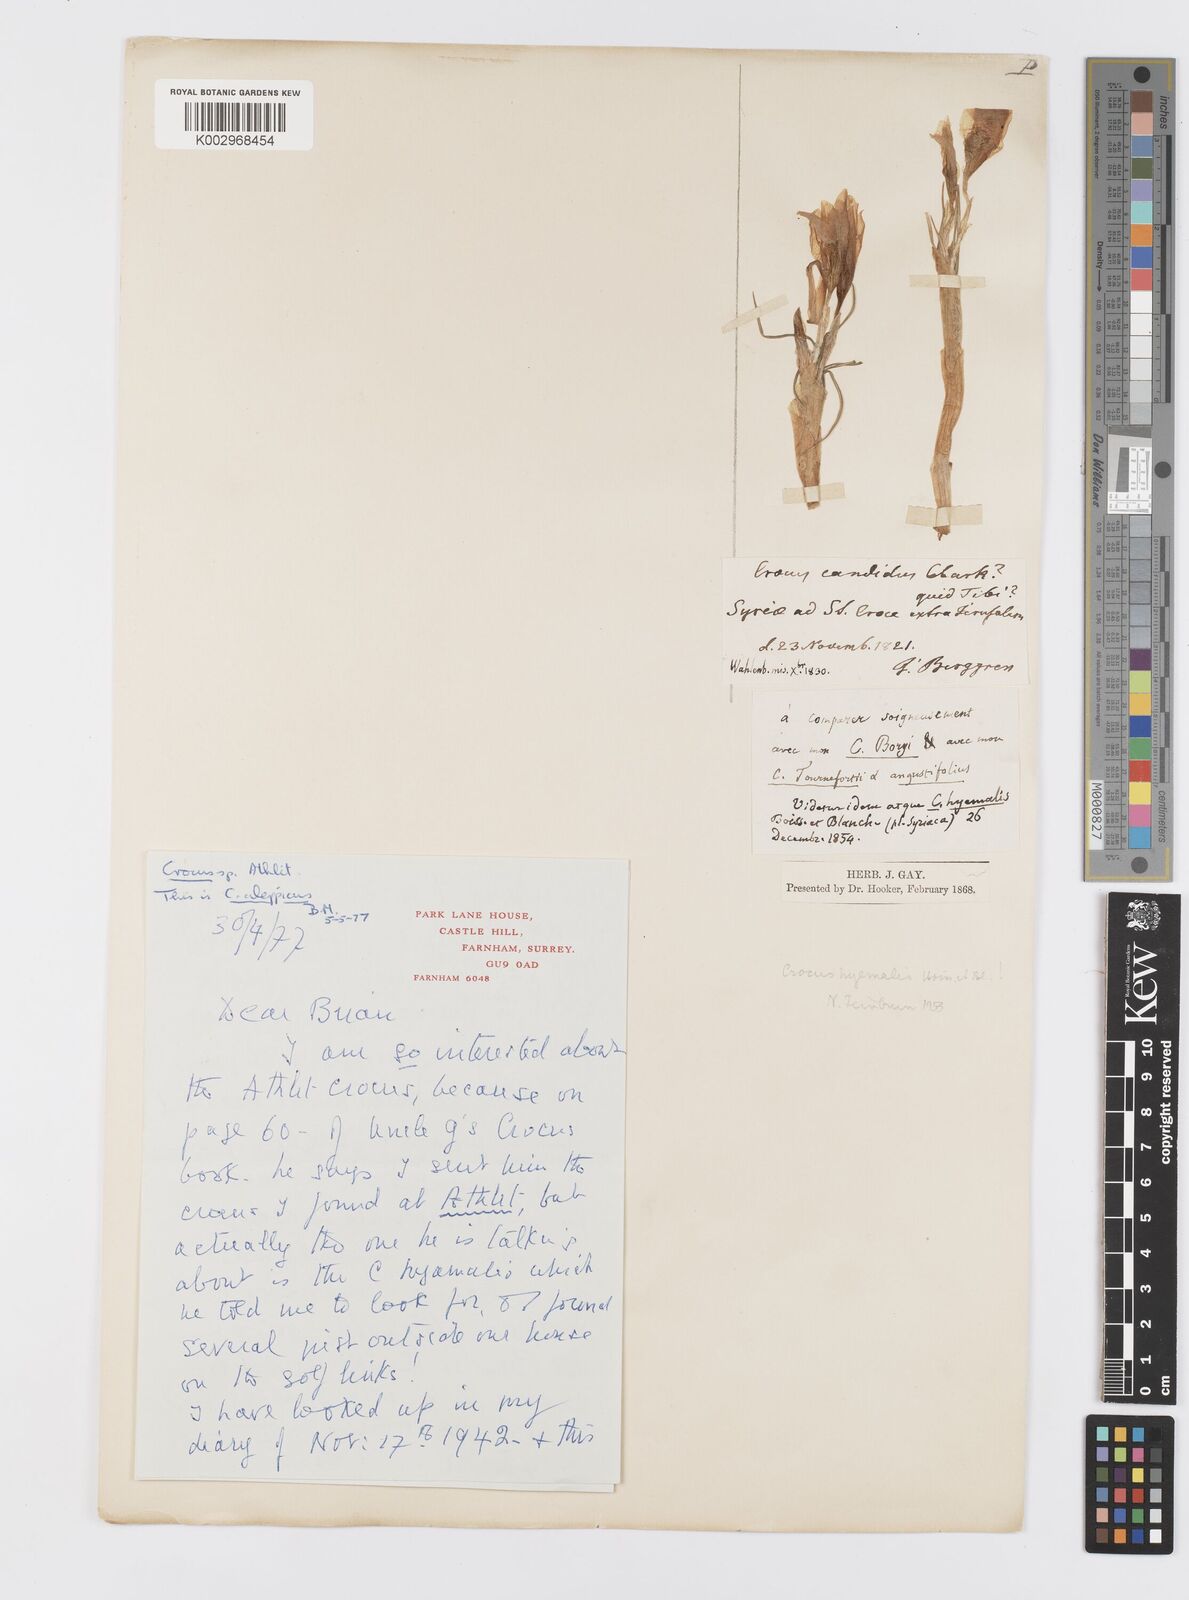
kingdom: Plantae
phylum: Tracheophyta
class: Liliopsida
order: Asparagales
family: Iridaceae
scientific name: Iridaceae
